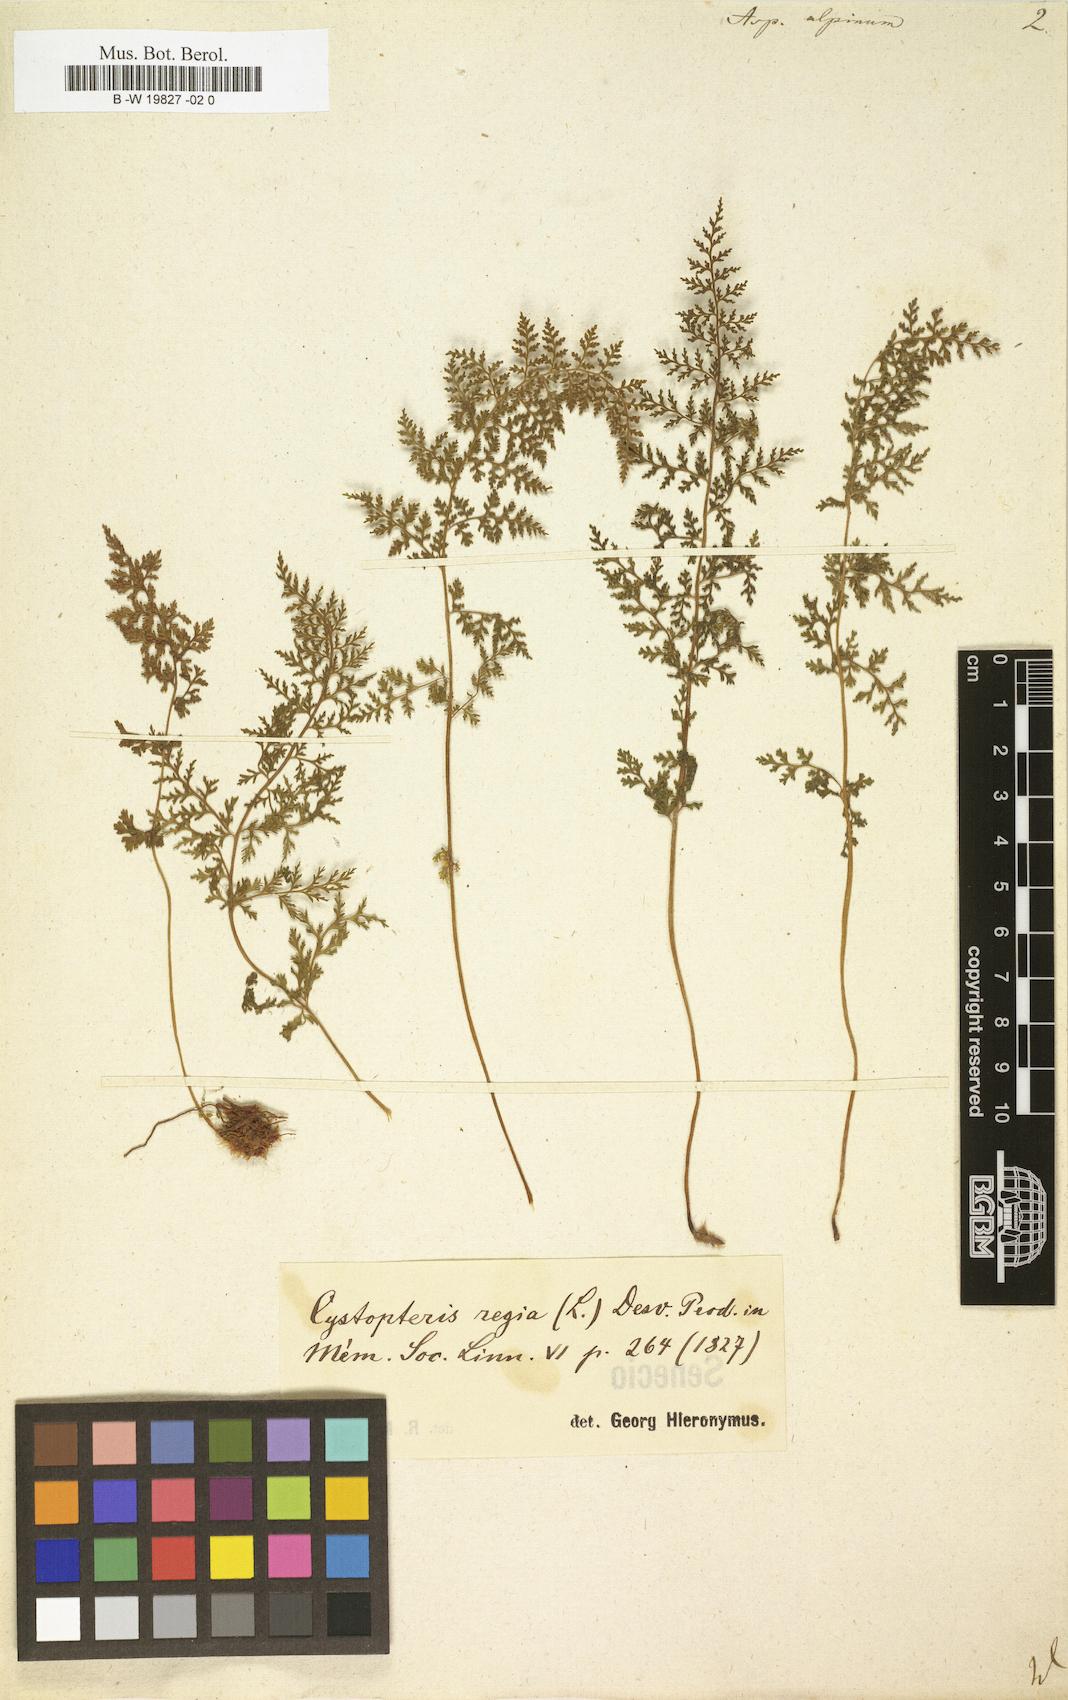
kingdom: Plantae
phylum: Tracheophyta
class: Polypodiopsida
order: Polypodiales
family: Cystopteridaceae
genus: Cystopteris
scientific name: Cystopteris alpina
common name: Alpine bladder-fern
